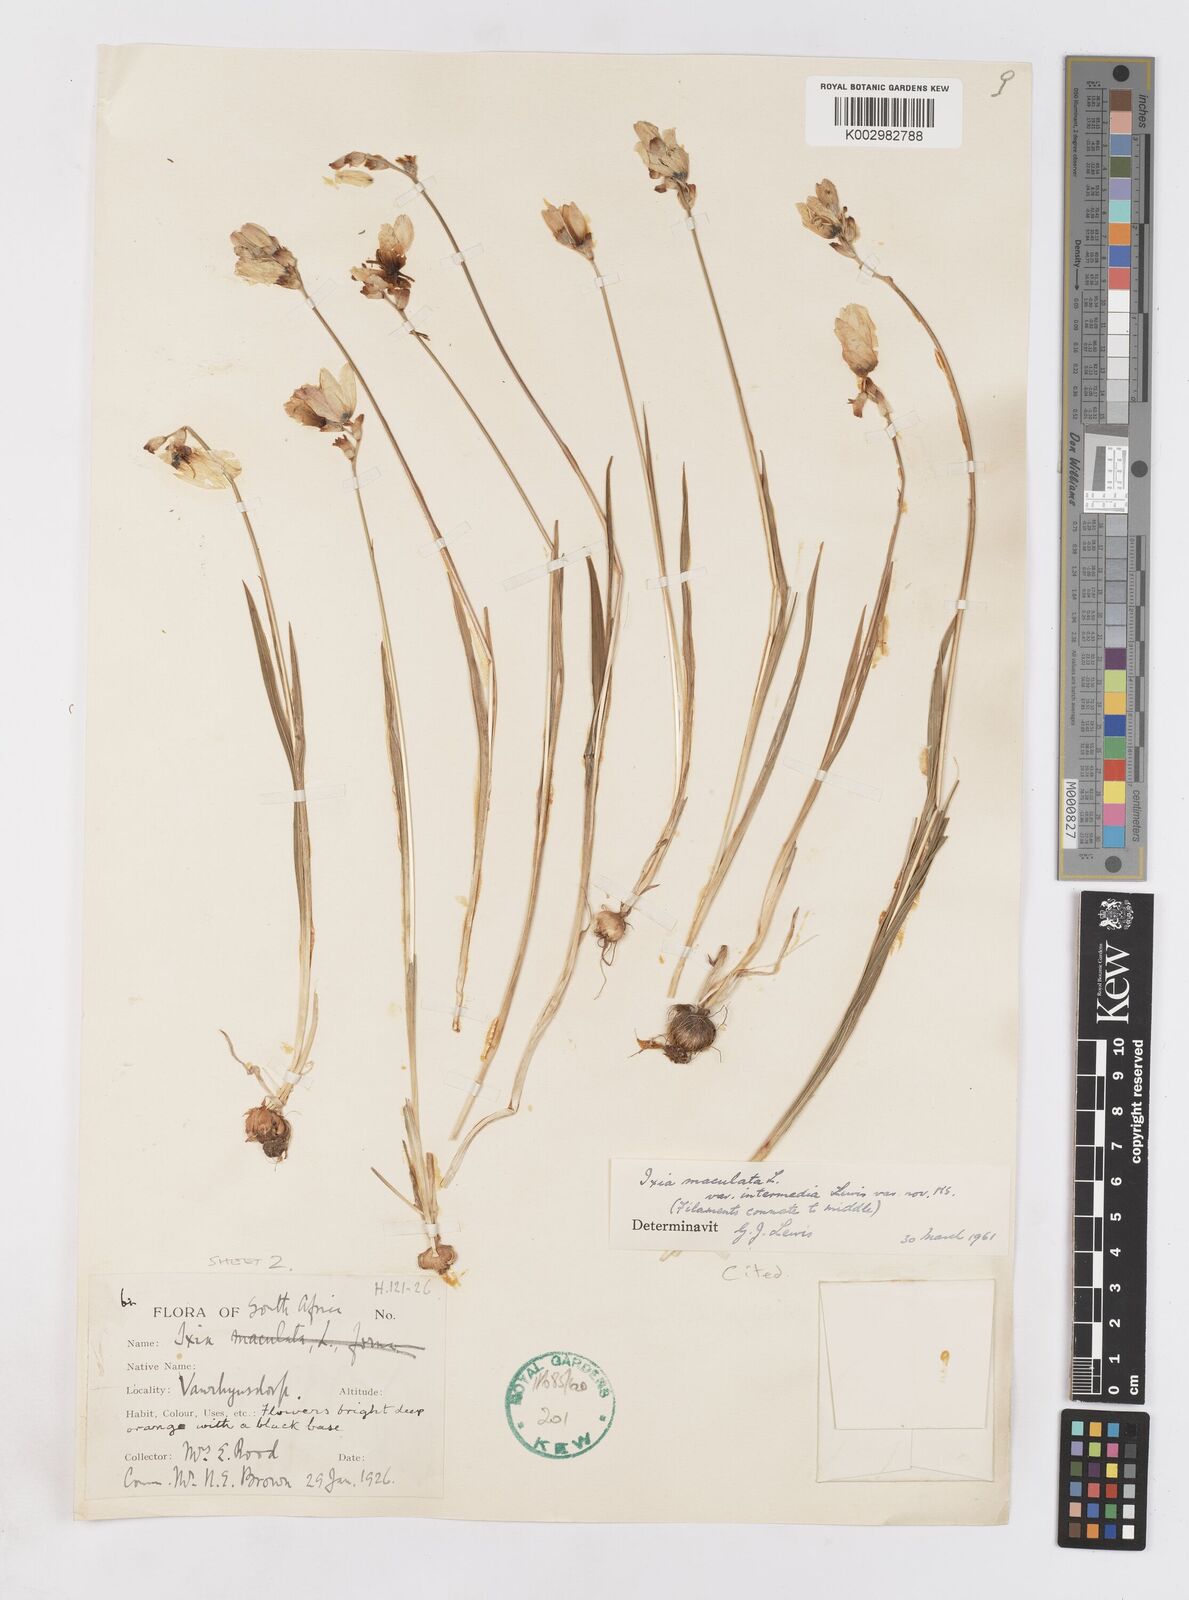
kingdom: Plantae
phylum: Tracheophyta
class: Liliopsida
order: Asparagales
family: Iridaceae
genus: Ixia
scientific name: Ixia maculata
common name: Spotted african cornlily
